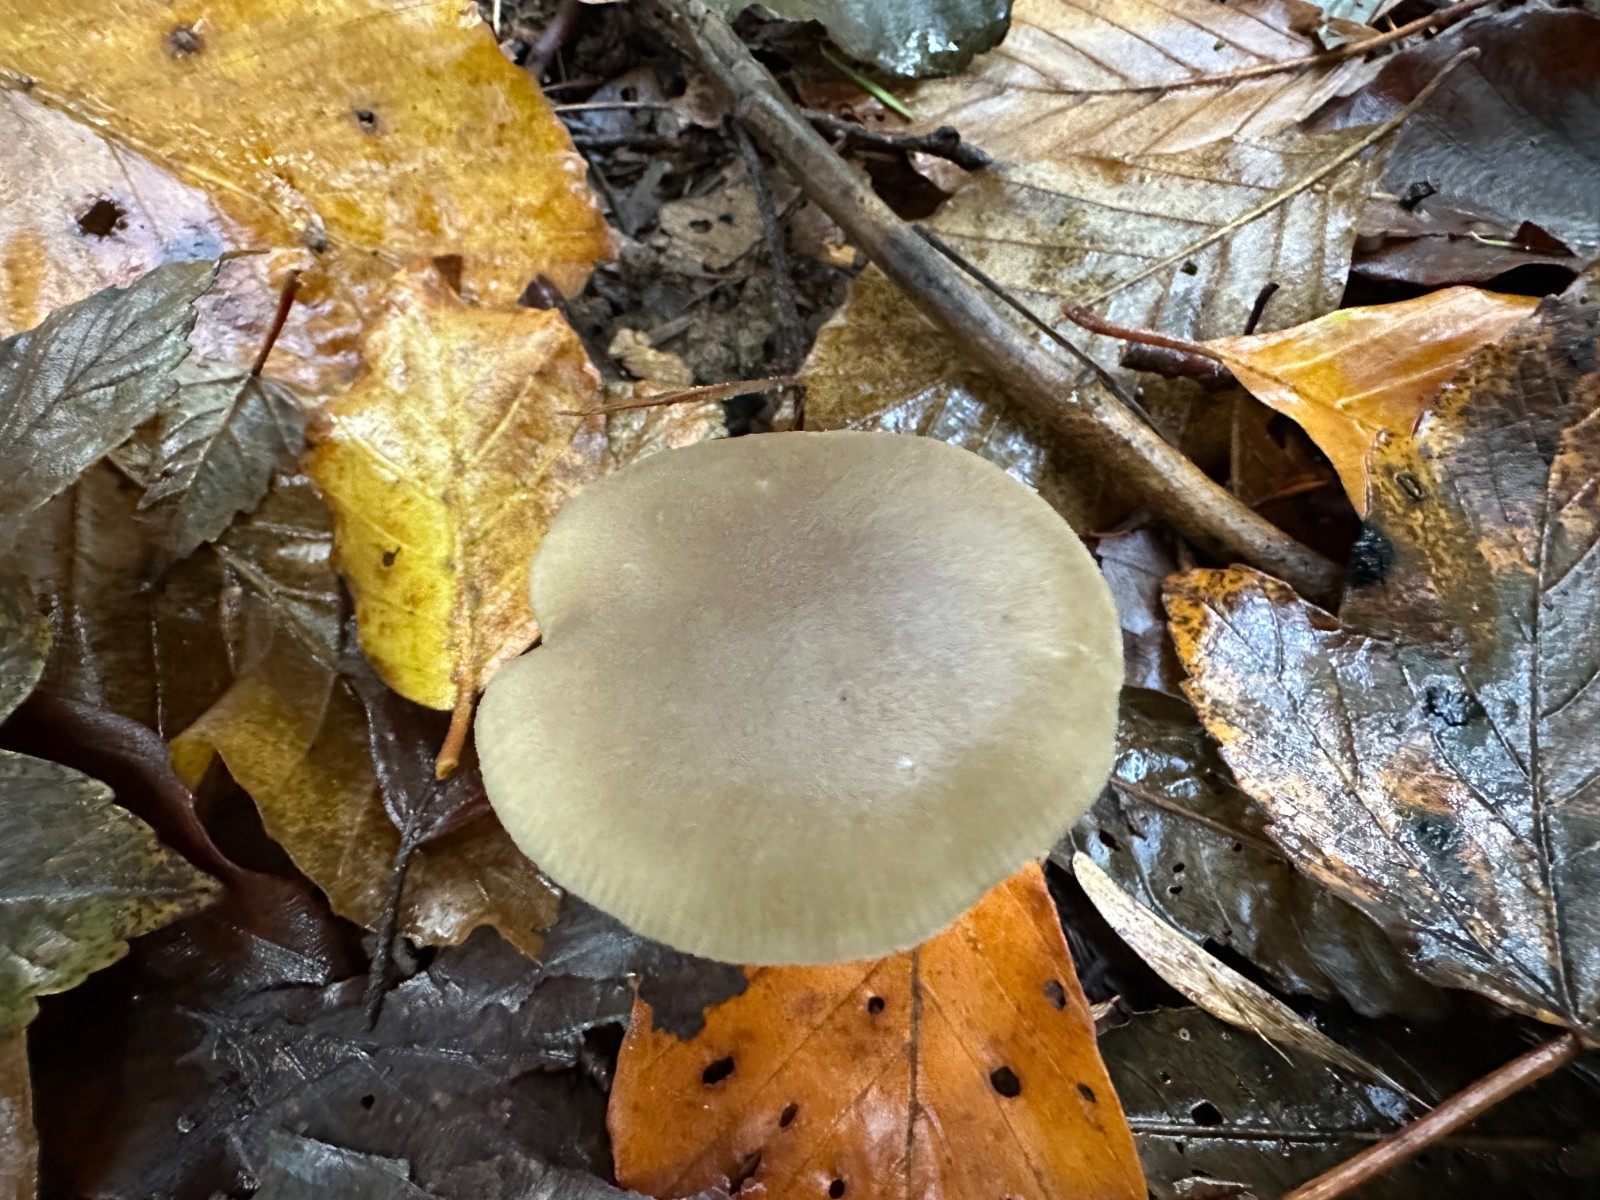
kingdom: Fungi
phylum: Basidiomycota
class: Agaricomycetes
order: Agaricales
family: Entolomataceae
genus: Entoloma
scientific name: Entoloma
